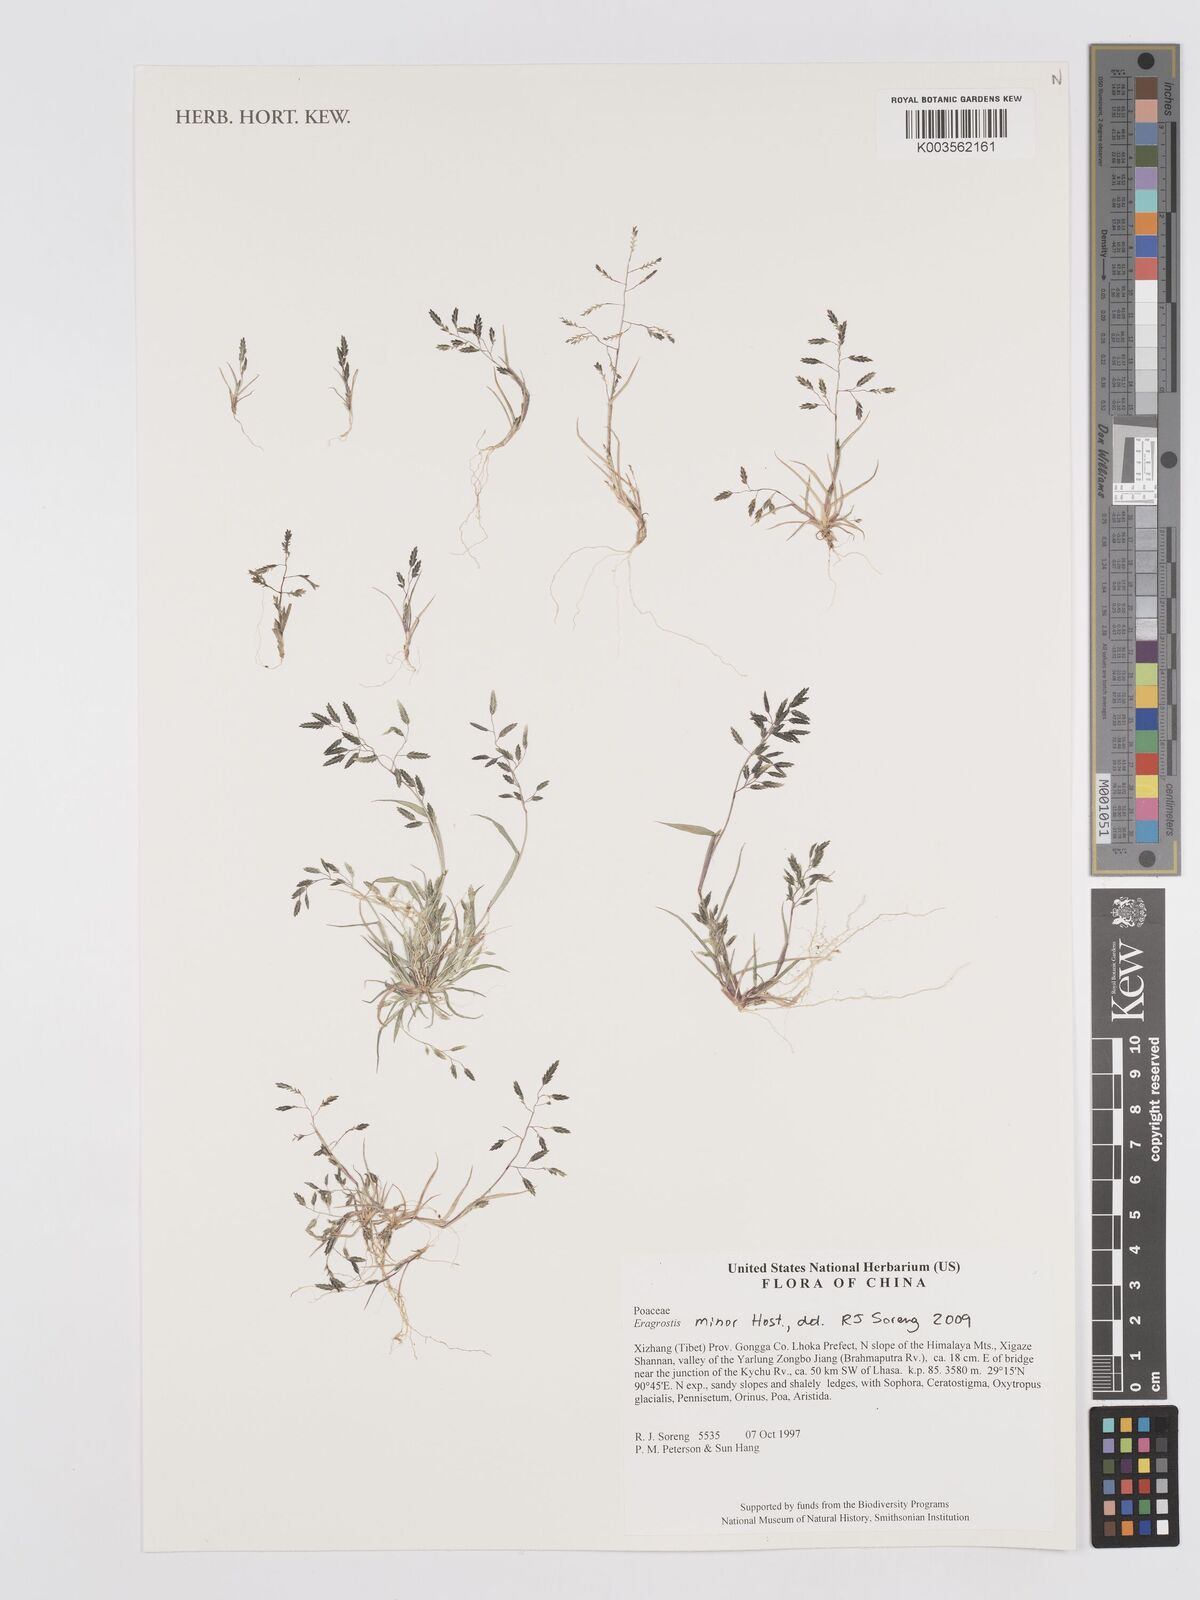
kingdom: Plantae
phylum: Tracheophyta
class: Liliopsida
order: Poales
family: Poaceae
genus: Eragrostis
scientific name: Eragrostis minor
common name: Small love-grass
